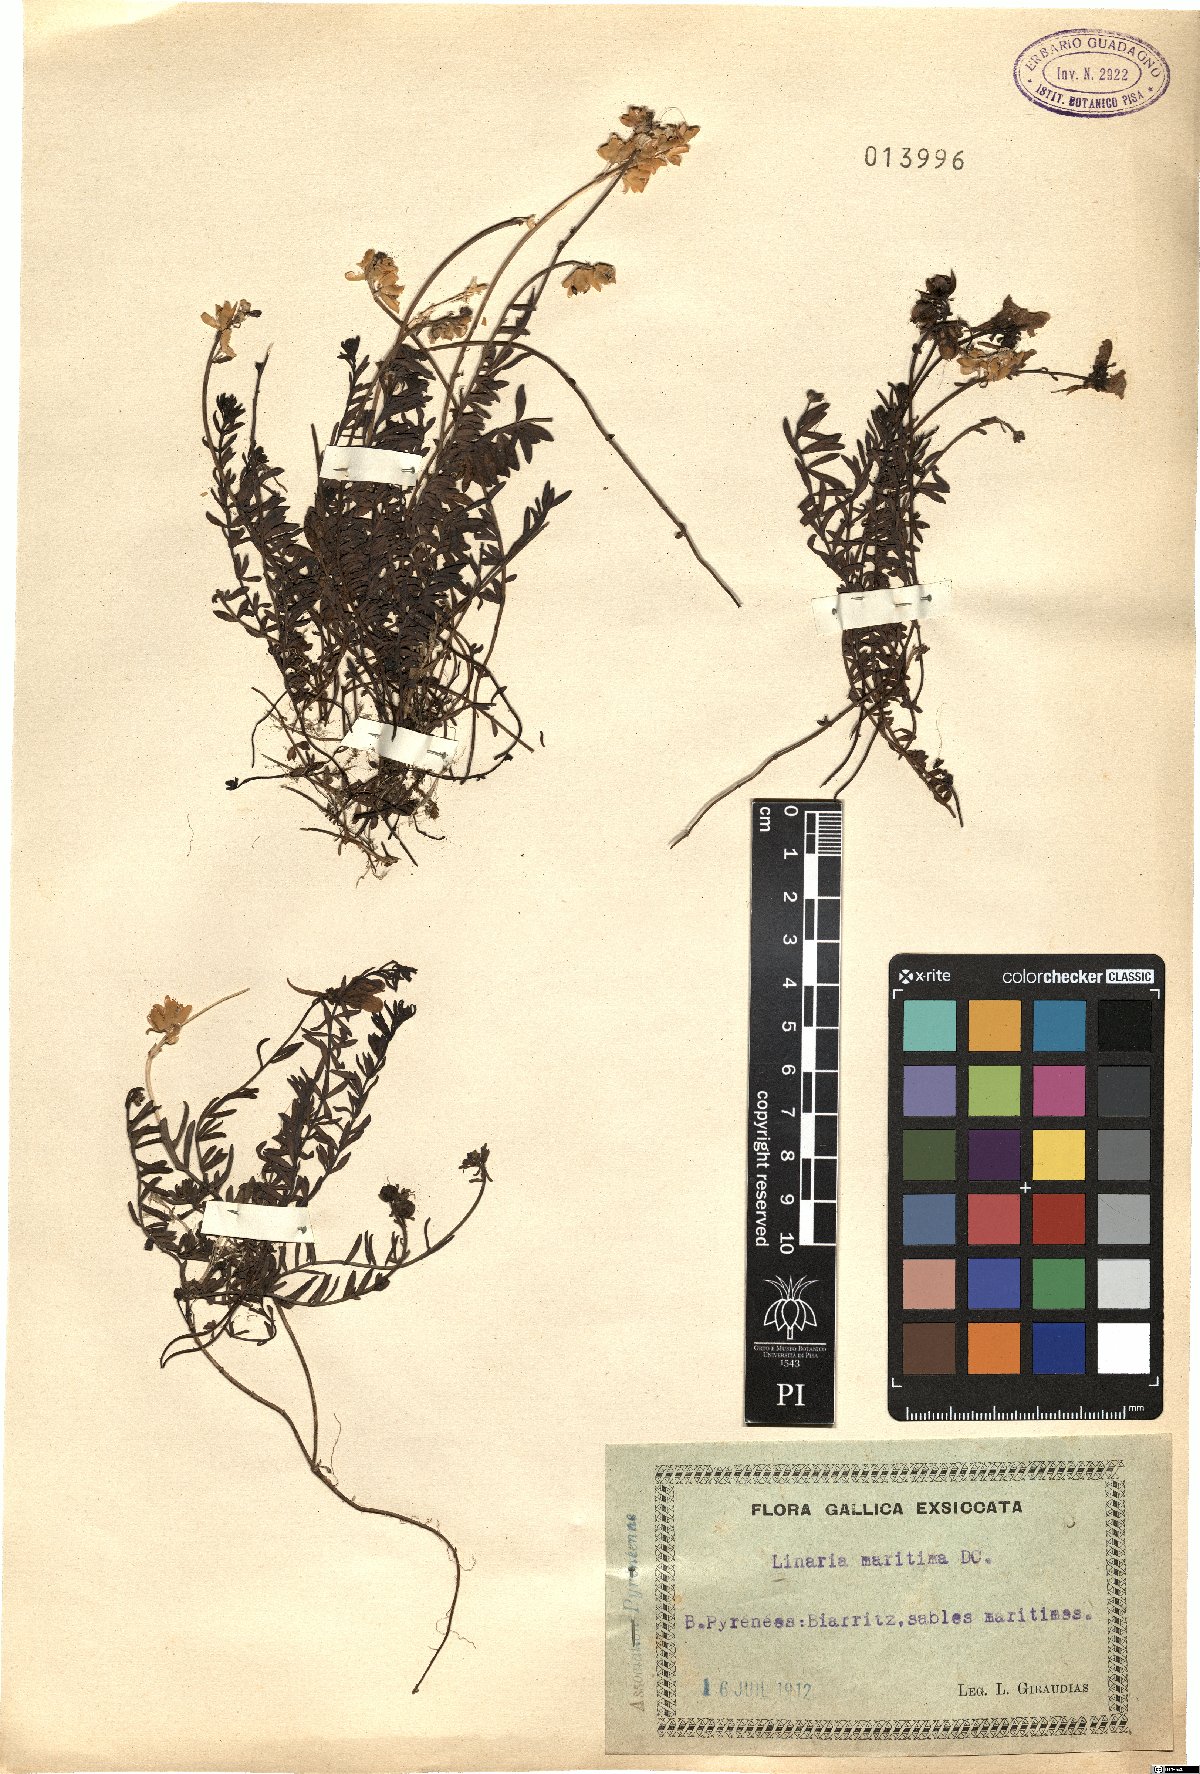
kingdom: Plantae
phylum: Tracheophyta
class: Magnoliopsida
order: Lamiales
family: Plantaginaceae
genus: Linaria
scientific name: Linaria supina
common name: Prostrate toadflax
